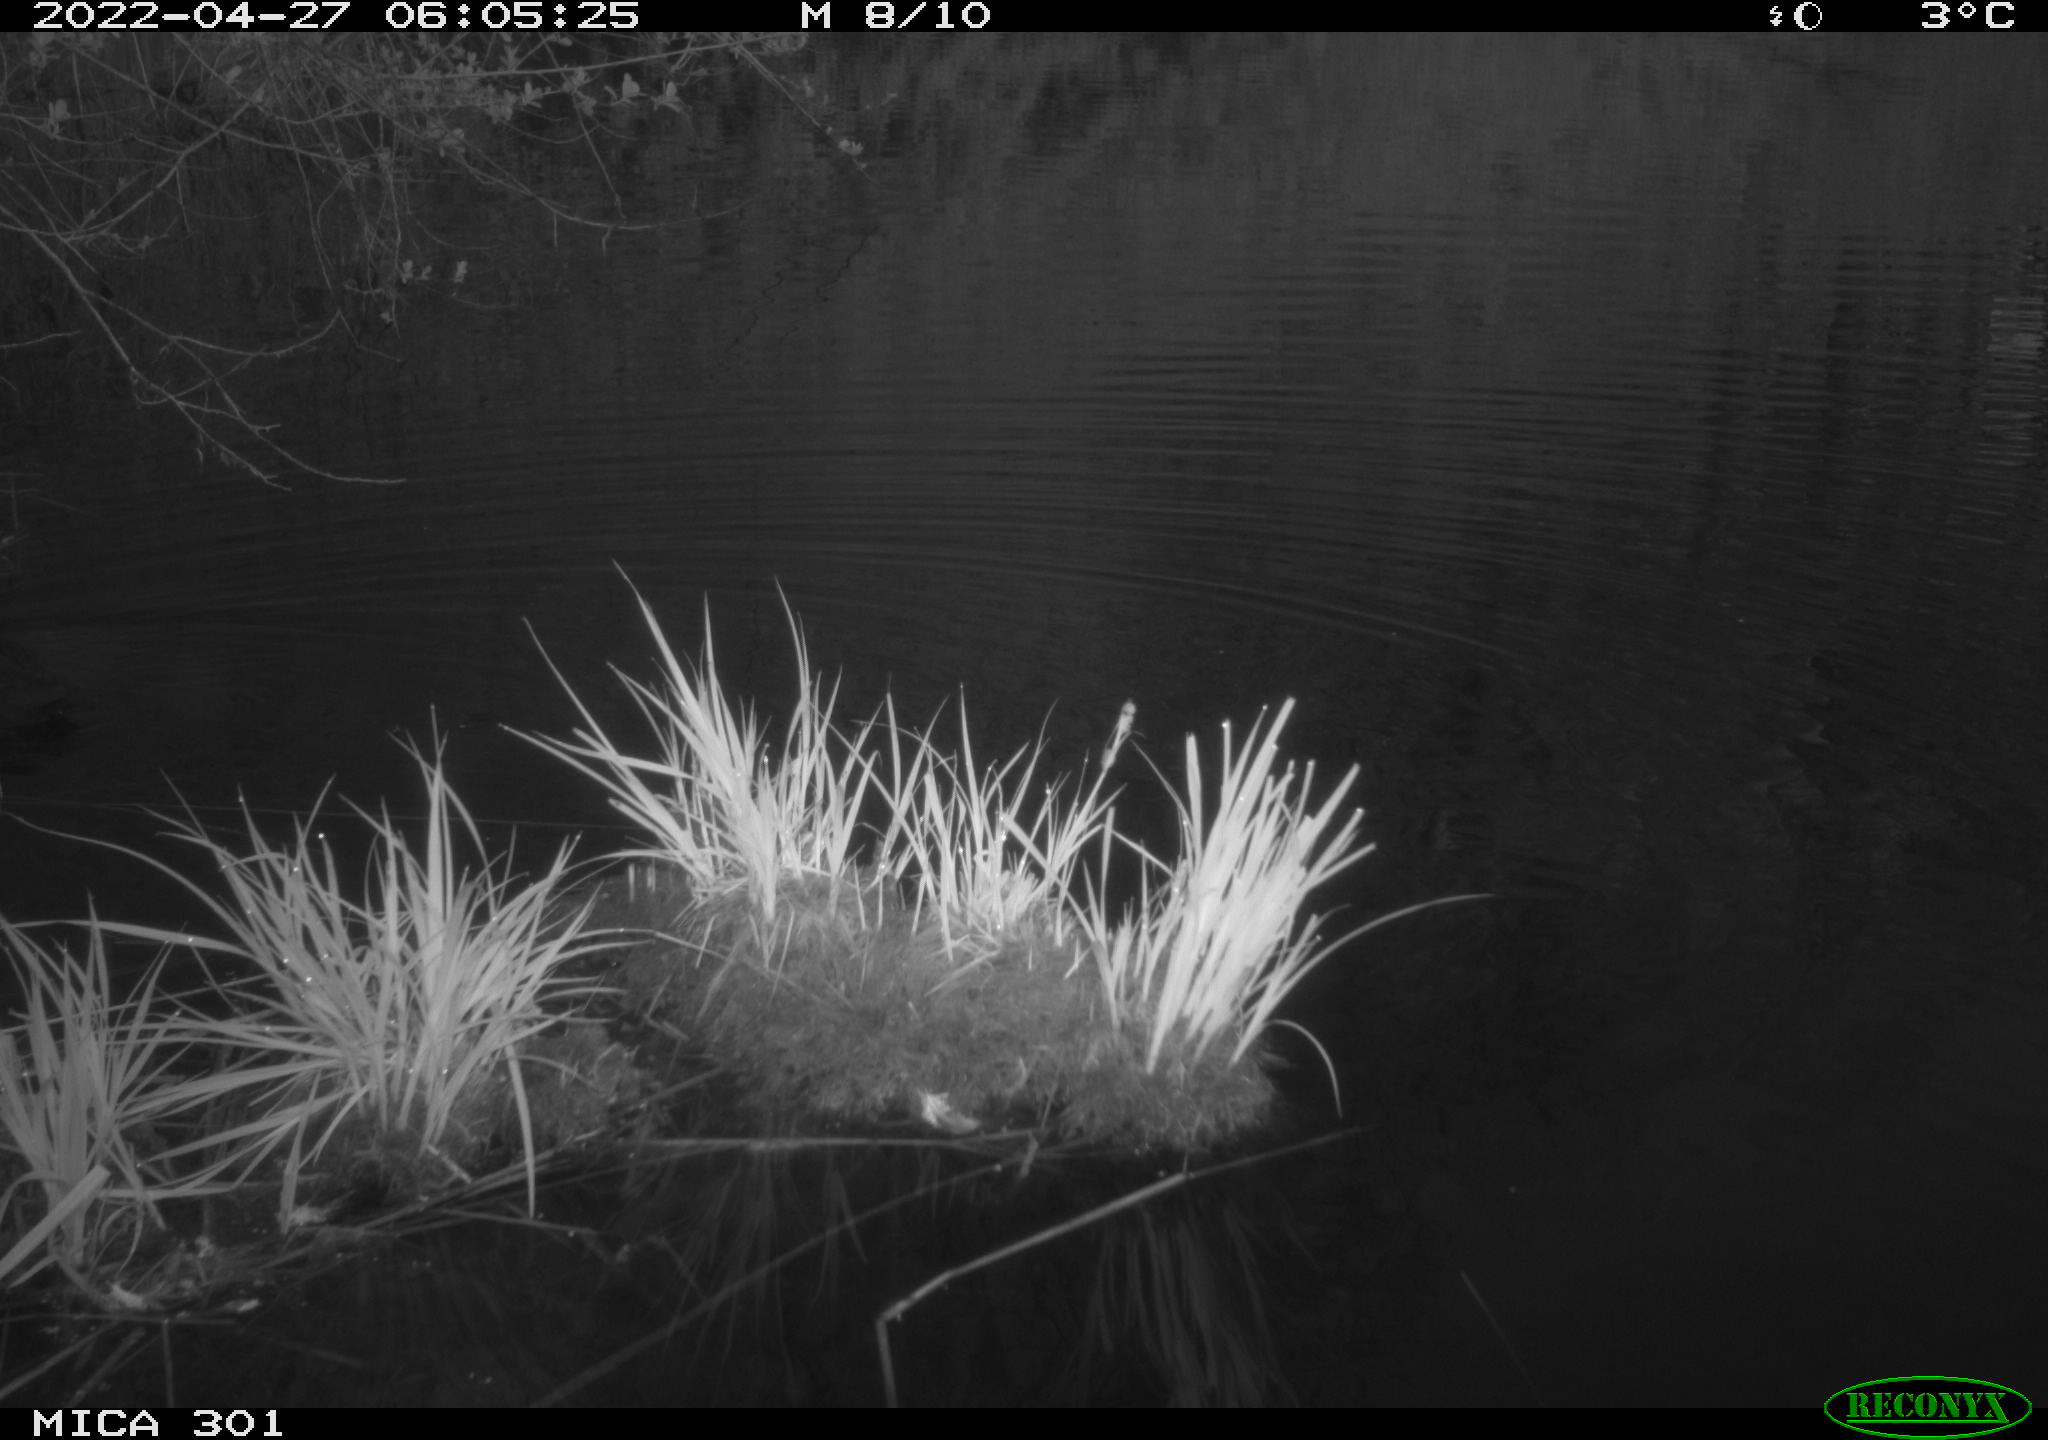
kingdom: Animalia
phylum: Chordata
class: Aves
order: Gruiformes
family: Rallidae
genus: Fulica
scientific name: Fulica atra
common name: Eurasian coot
